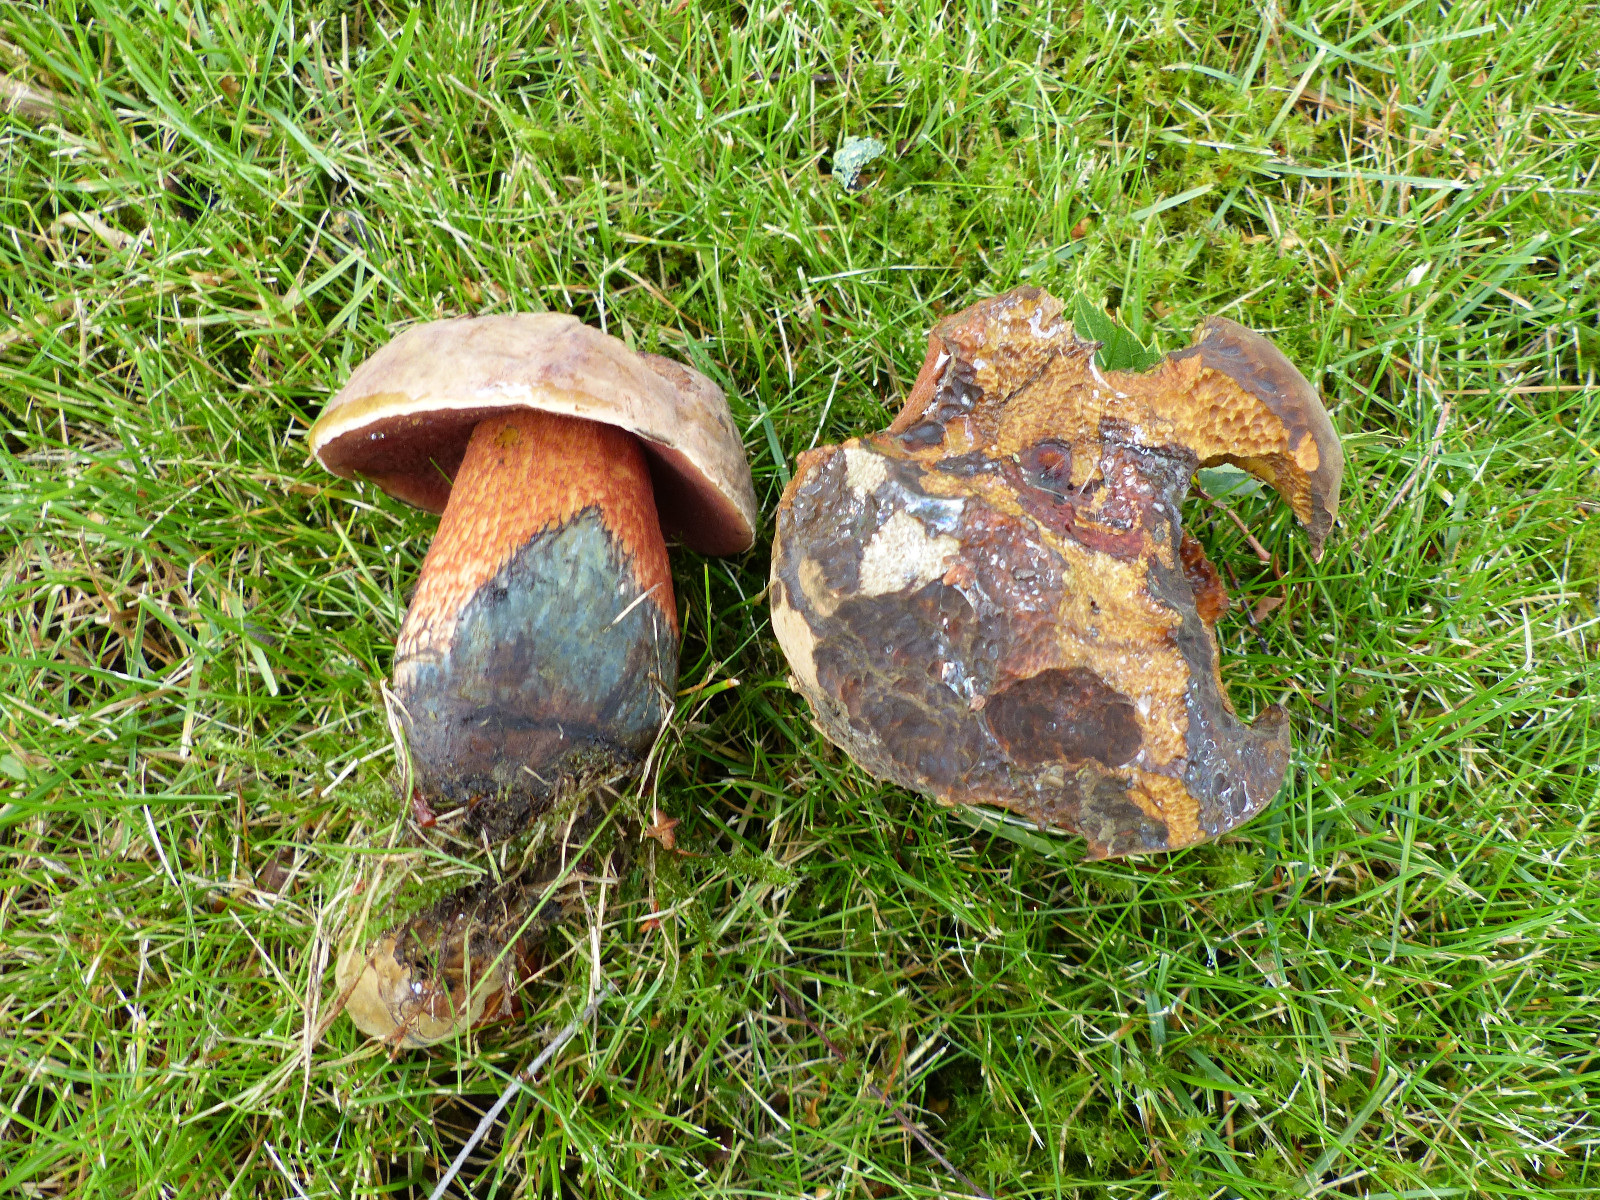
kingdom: Fungi
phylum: Basidiomycota
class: Agaricomycetes
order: Boletales
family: Boletaceae
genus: Suillellus
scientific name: Suillellus luridus
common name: netstokket indigorørhat
